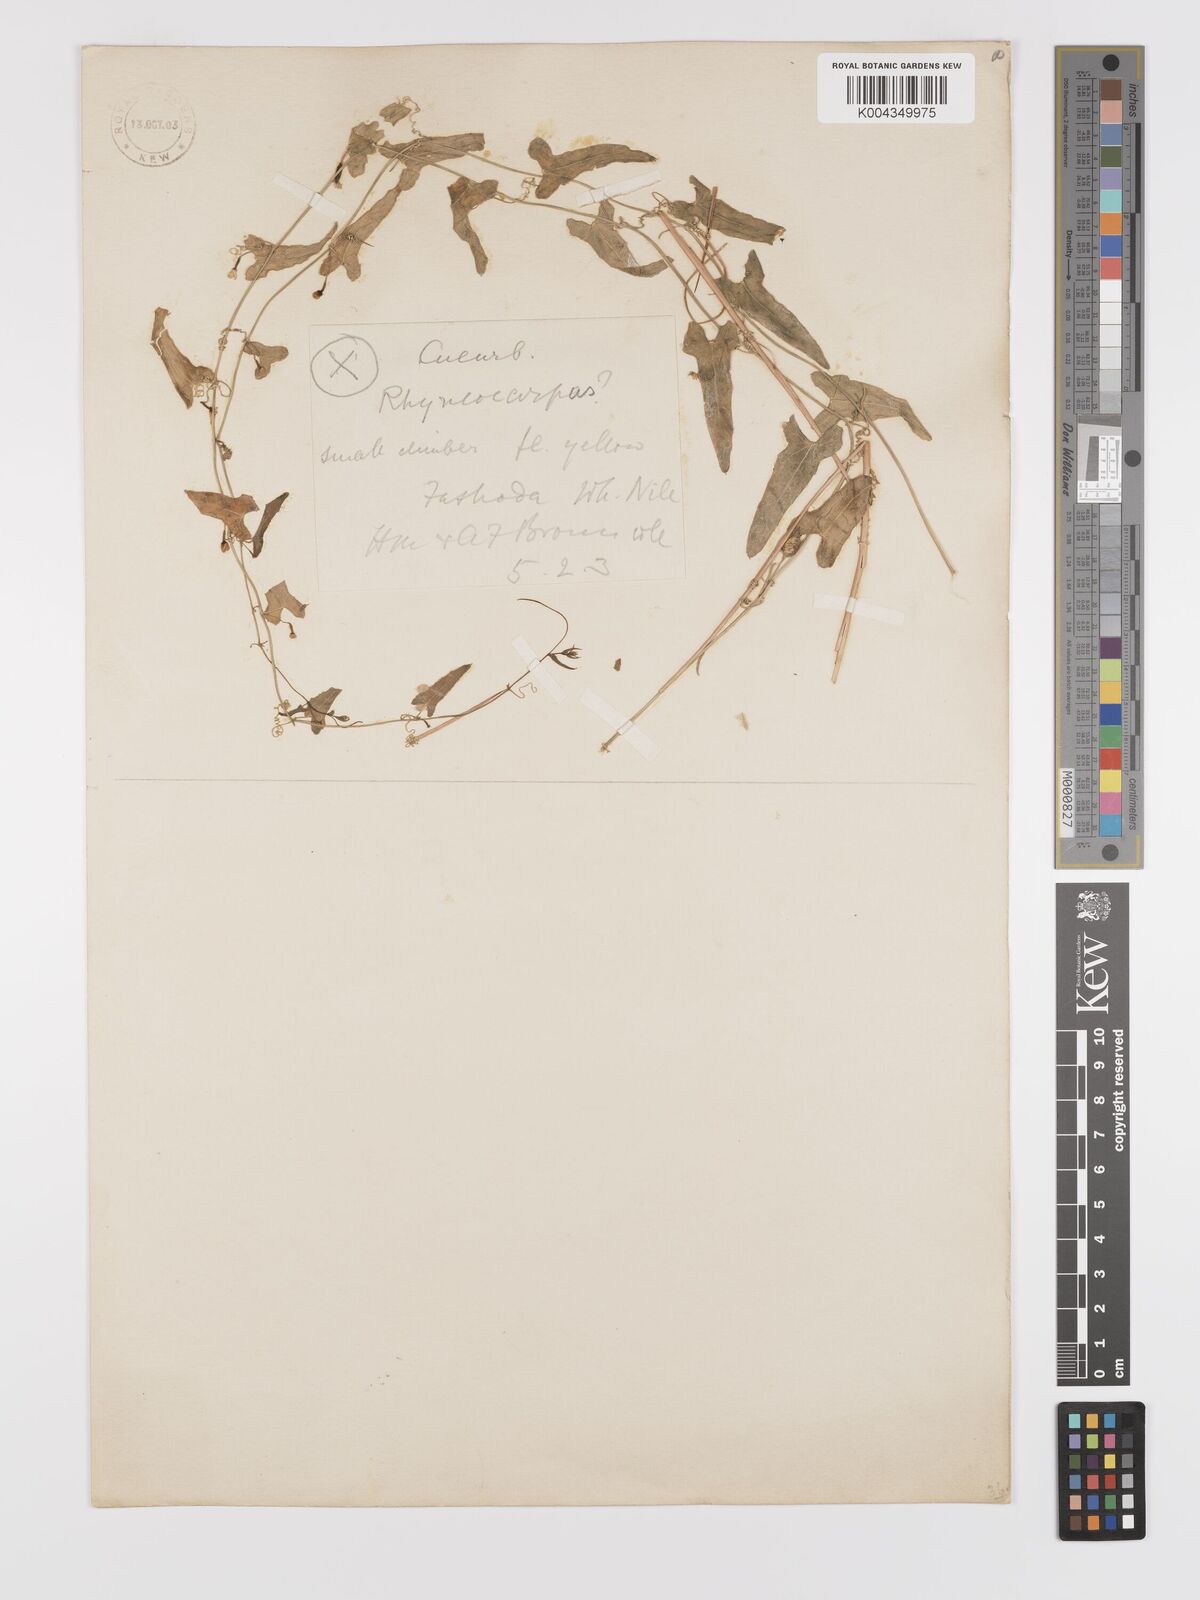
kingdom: Plantae
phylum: Tracheophyta
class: Magnoliopsida
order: Cucurbitales
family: Cucurbitaceae
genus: Zehneria
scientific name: Zehneria peneyana
